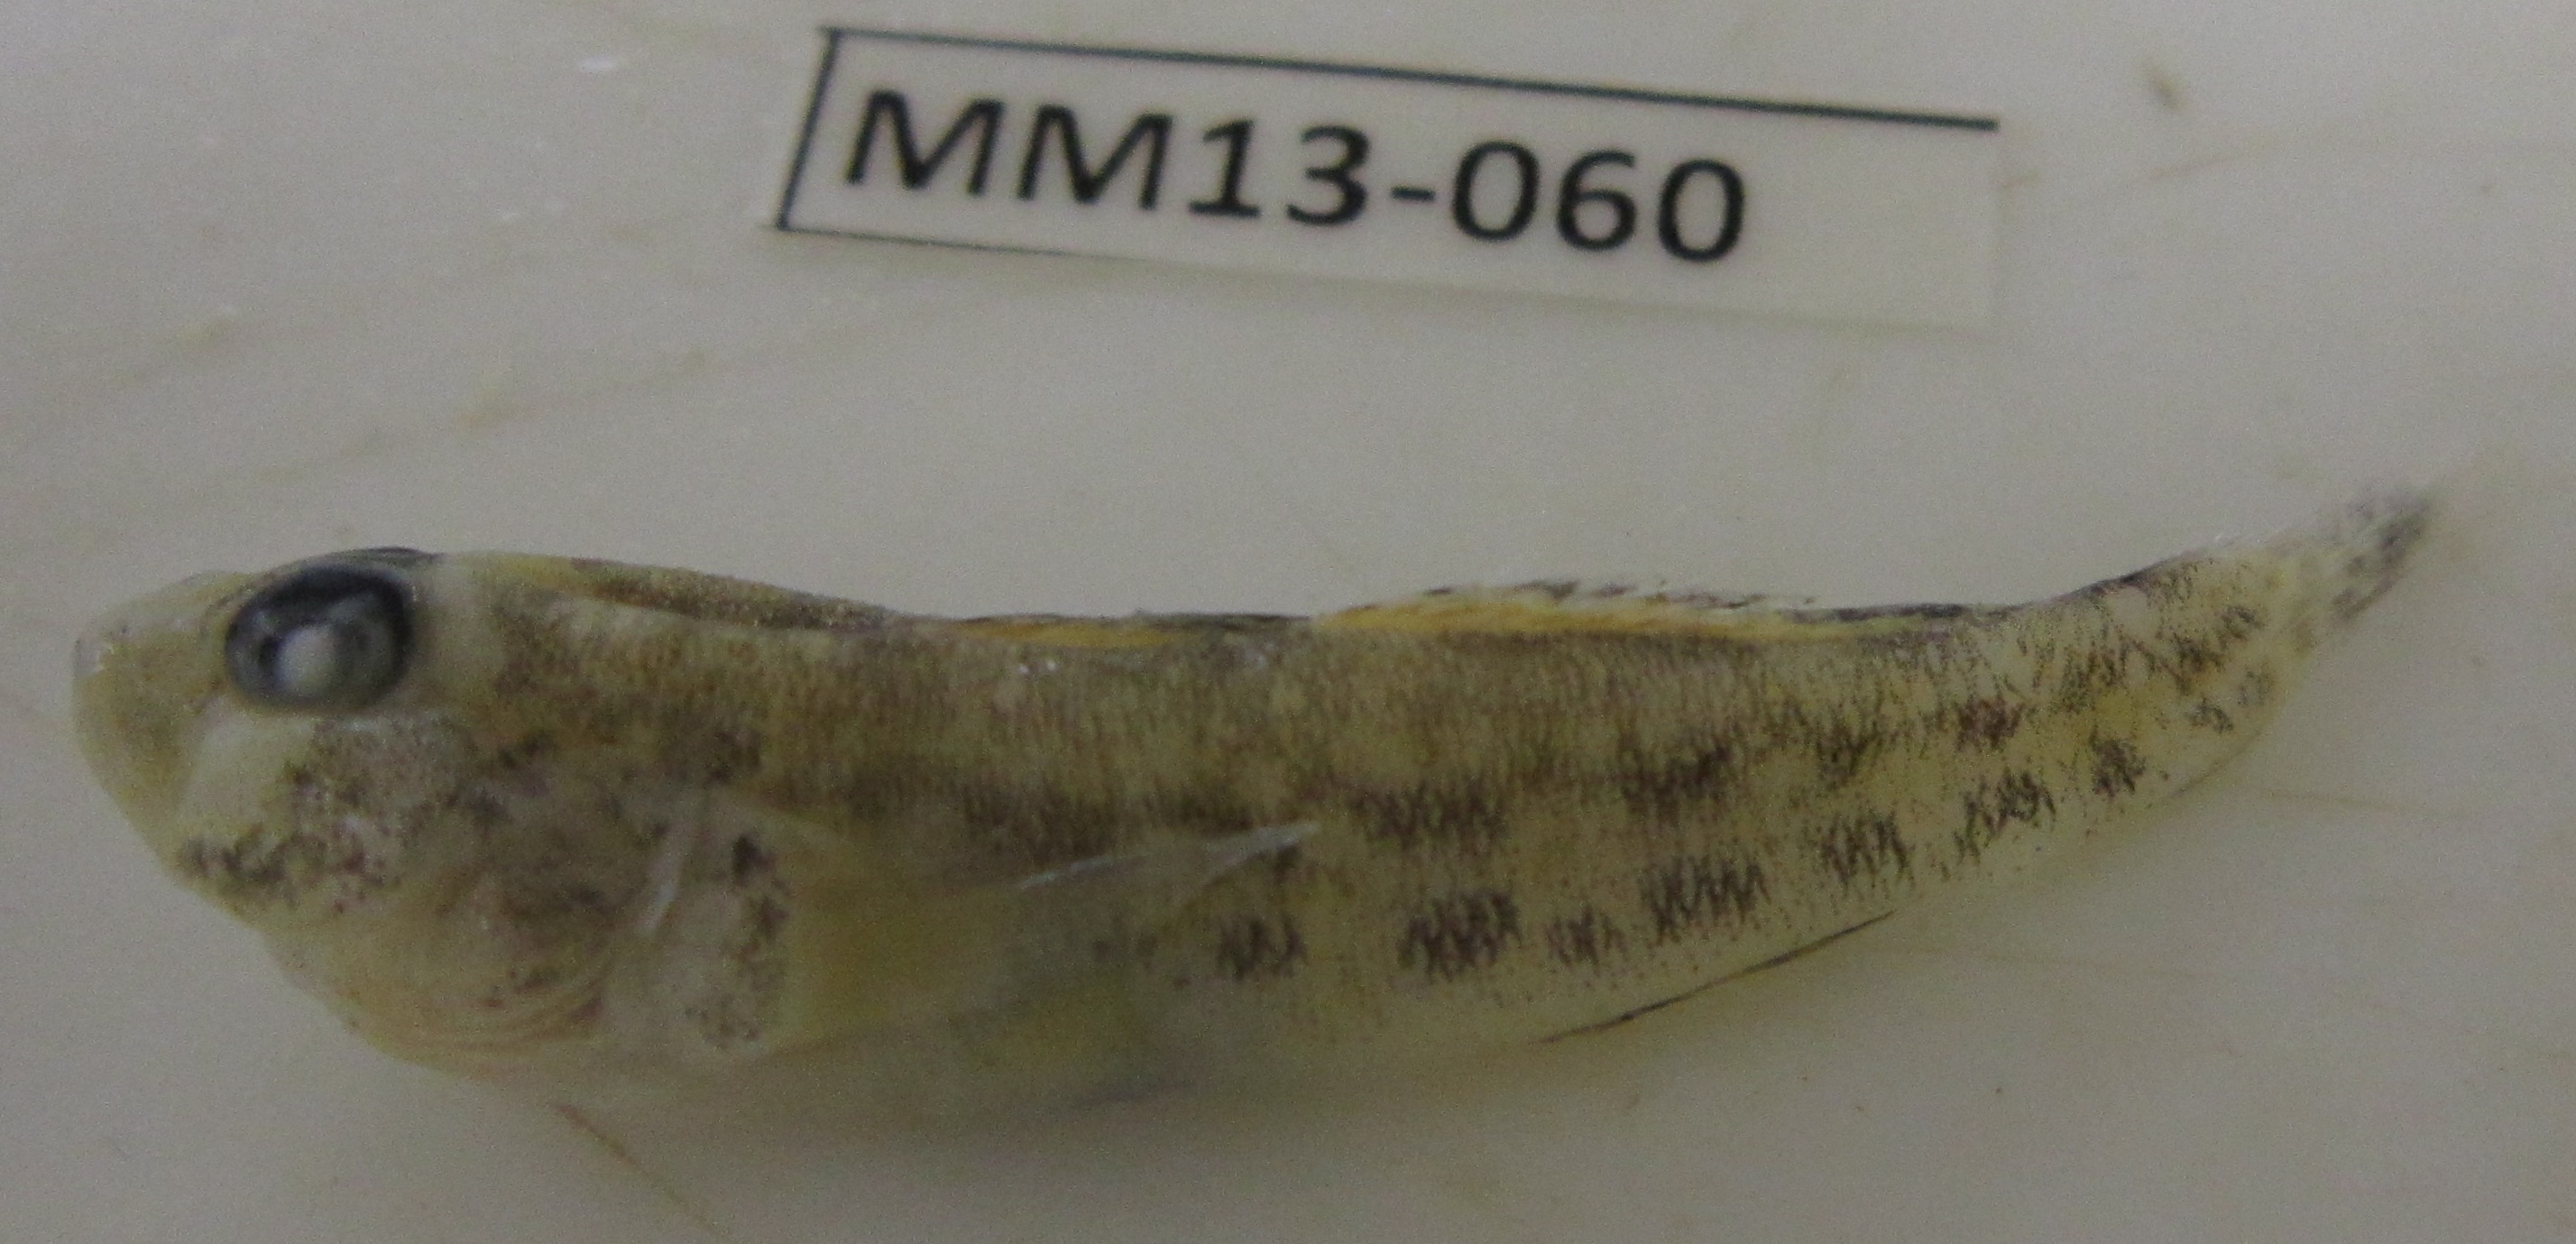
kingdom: Animalia
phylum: Chordata
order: Perciformes
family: Gobiidae
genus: Caffrogobius
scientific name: Caffrogobius
